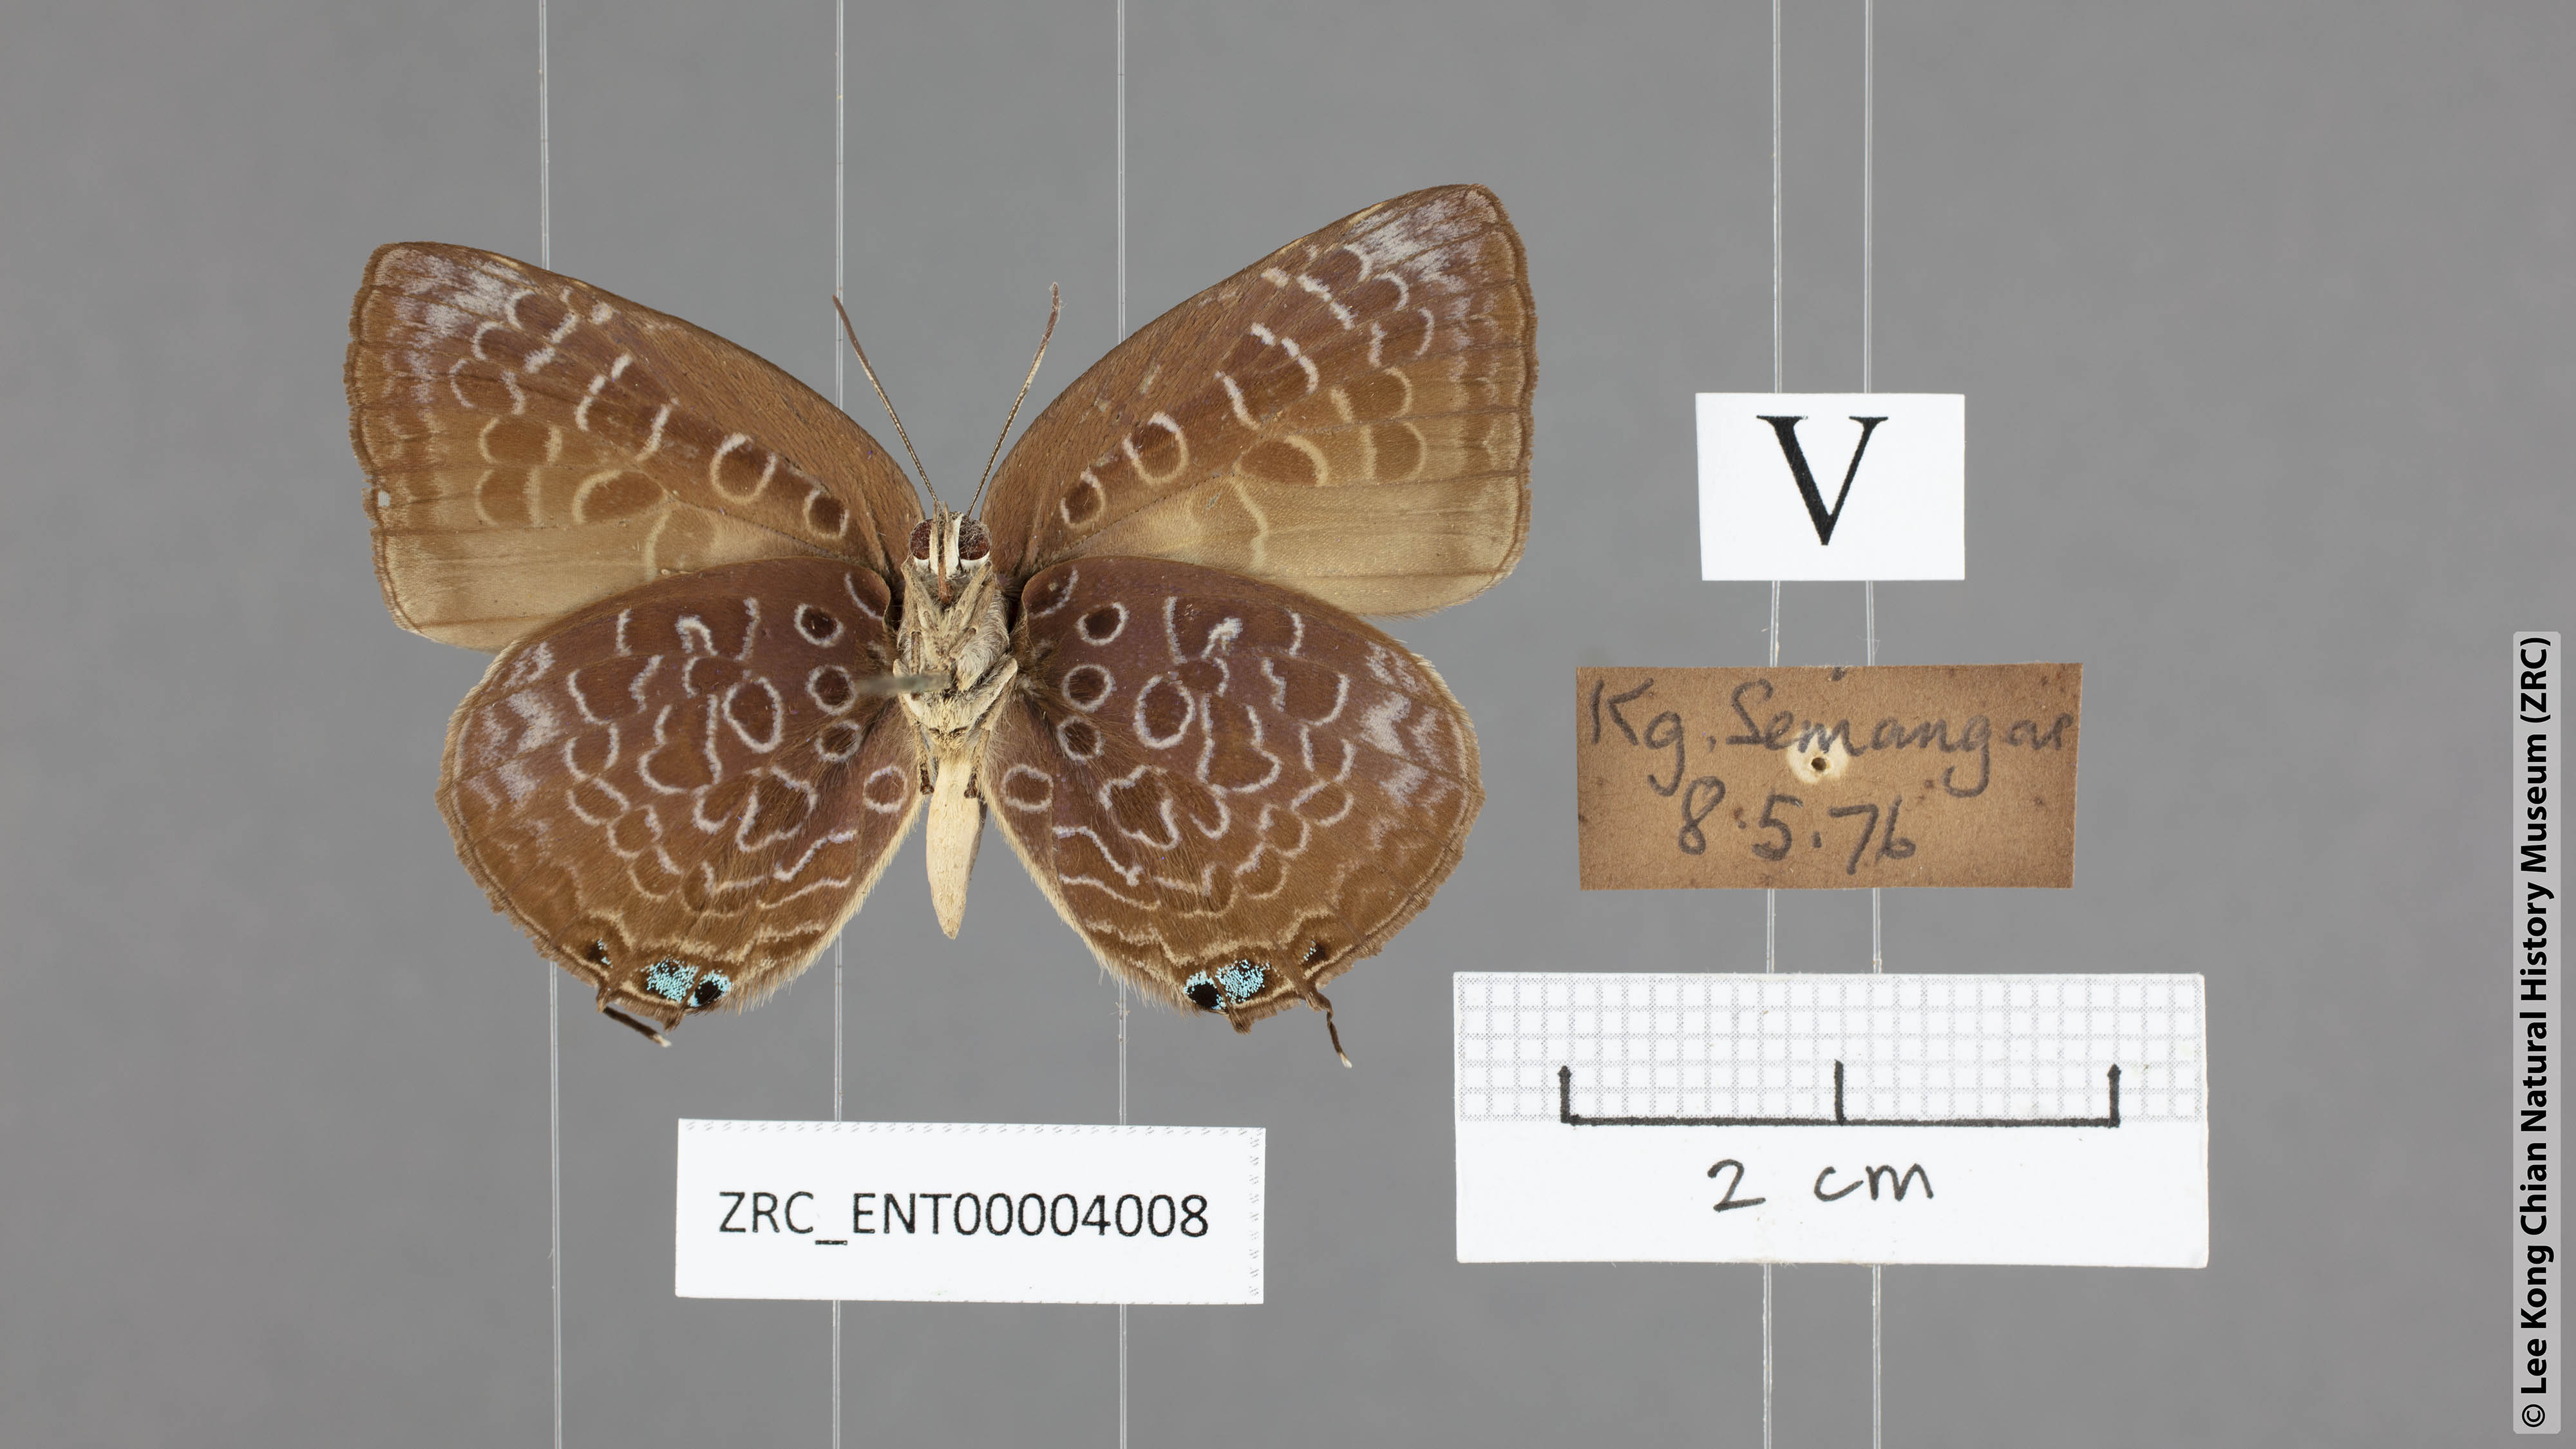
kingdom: Animalia
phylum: Arthropoda
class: Insecta
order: Lepidoptera
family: Lycaenidae
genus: Arhopala
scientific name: Arhopala myrzala
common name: Malayan oakblue
